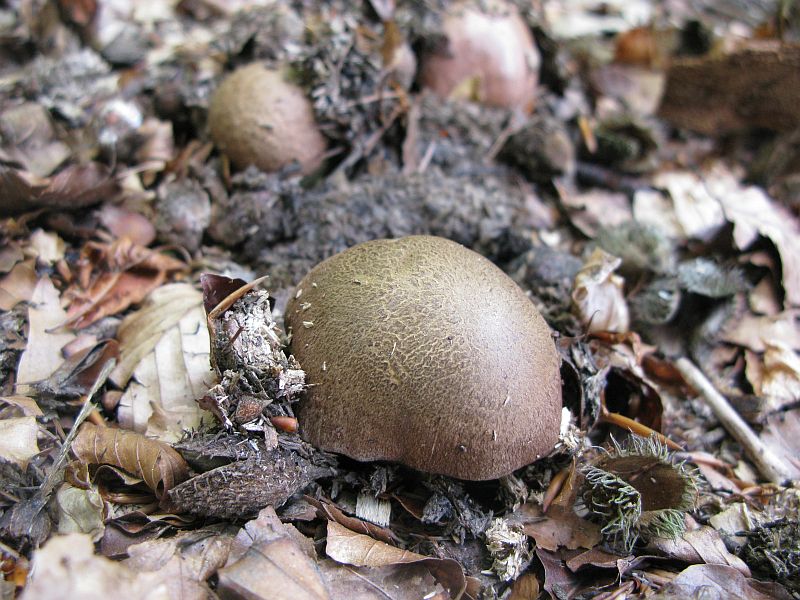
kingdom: Fungi
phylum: Basidiomycota
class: Agaricomycetes
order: Boletales
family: Boletaceae
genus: Butyriboletus
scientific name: Butyriboletus appendiculatus
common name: tenstokket rørhat
